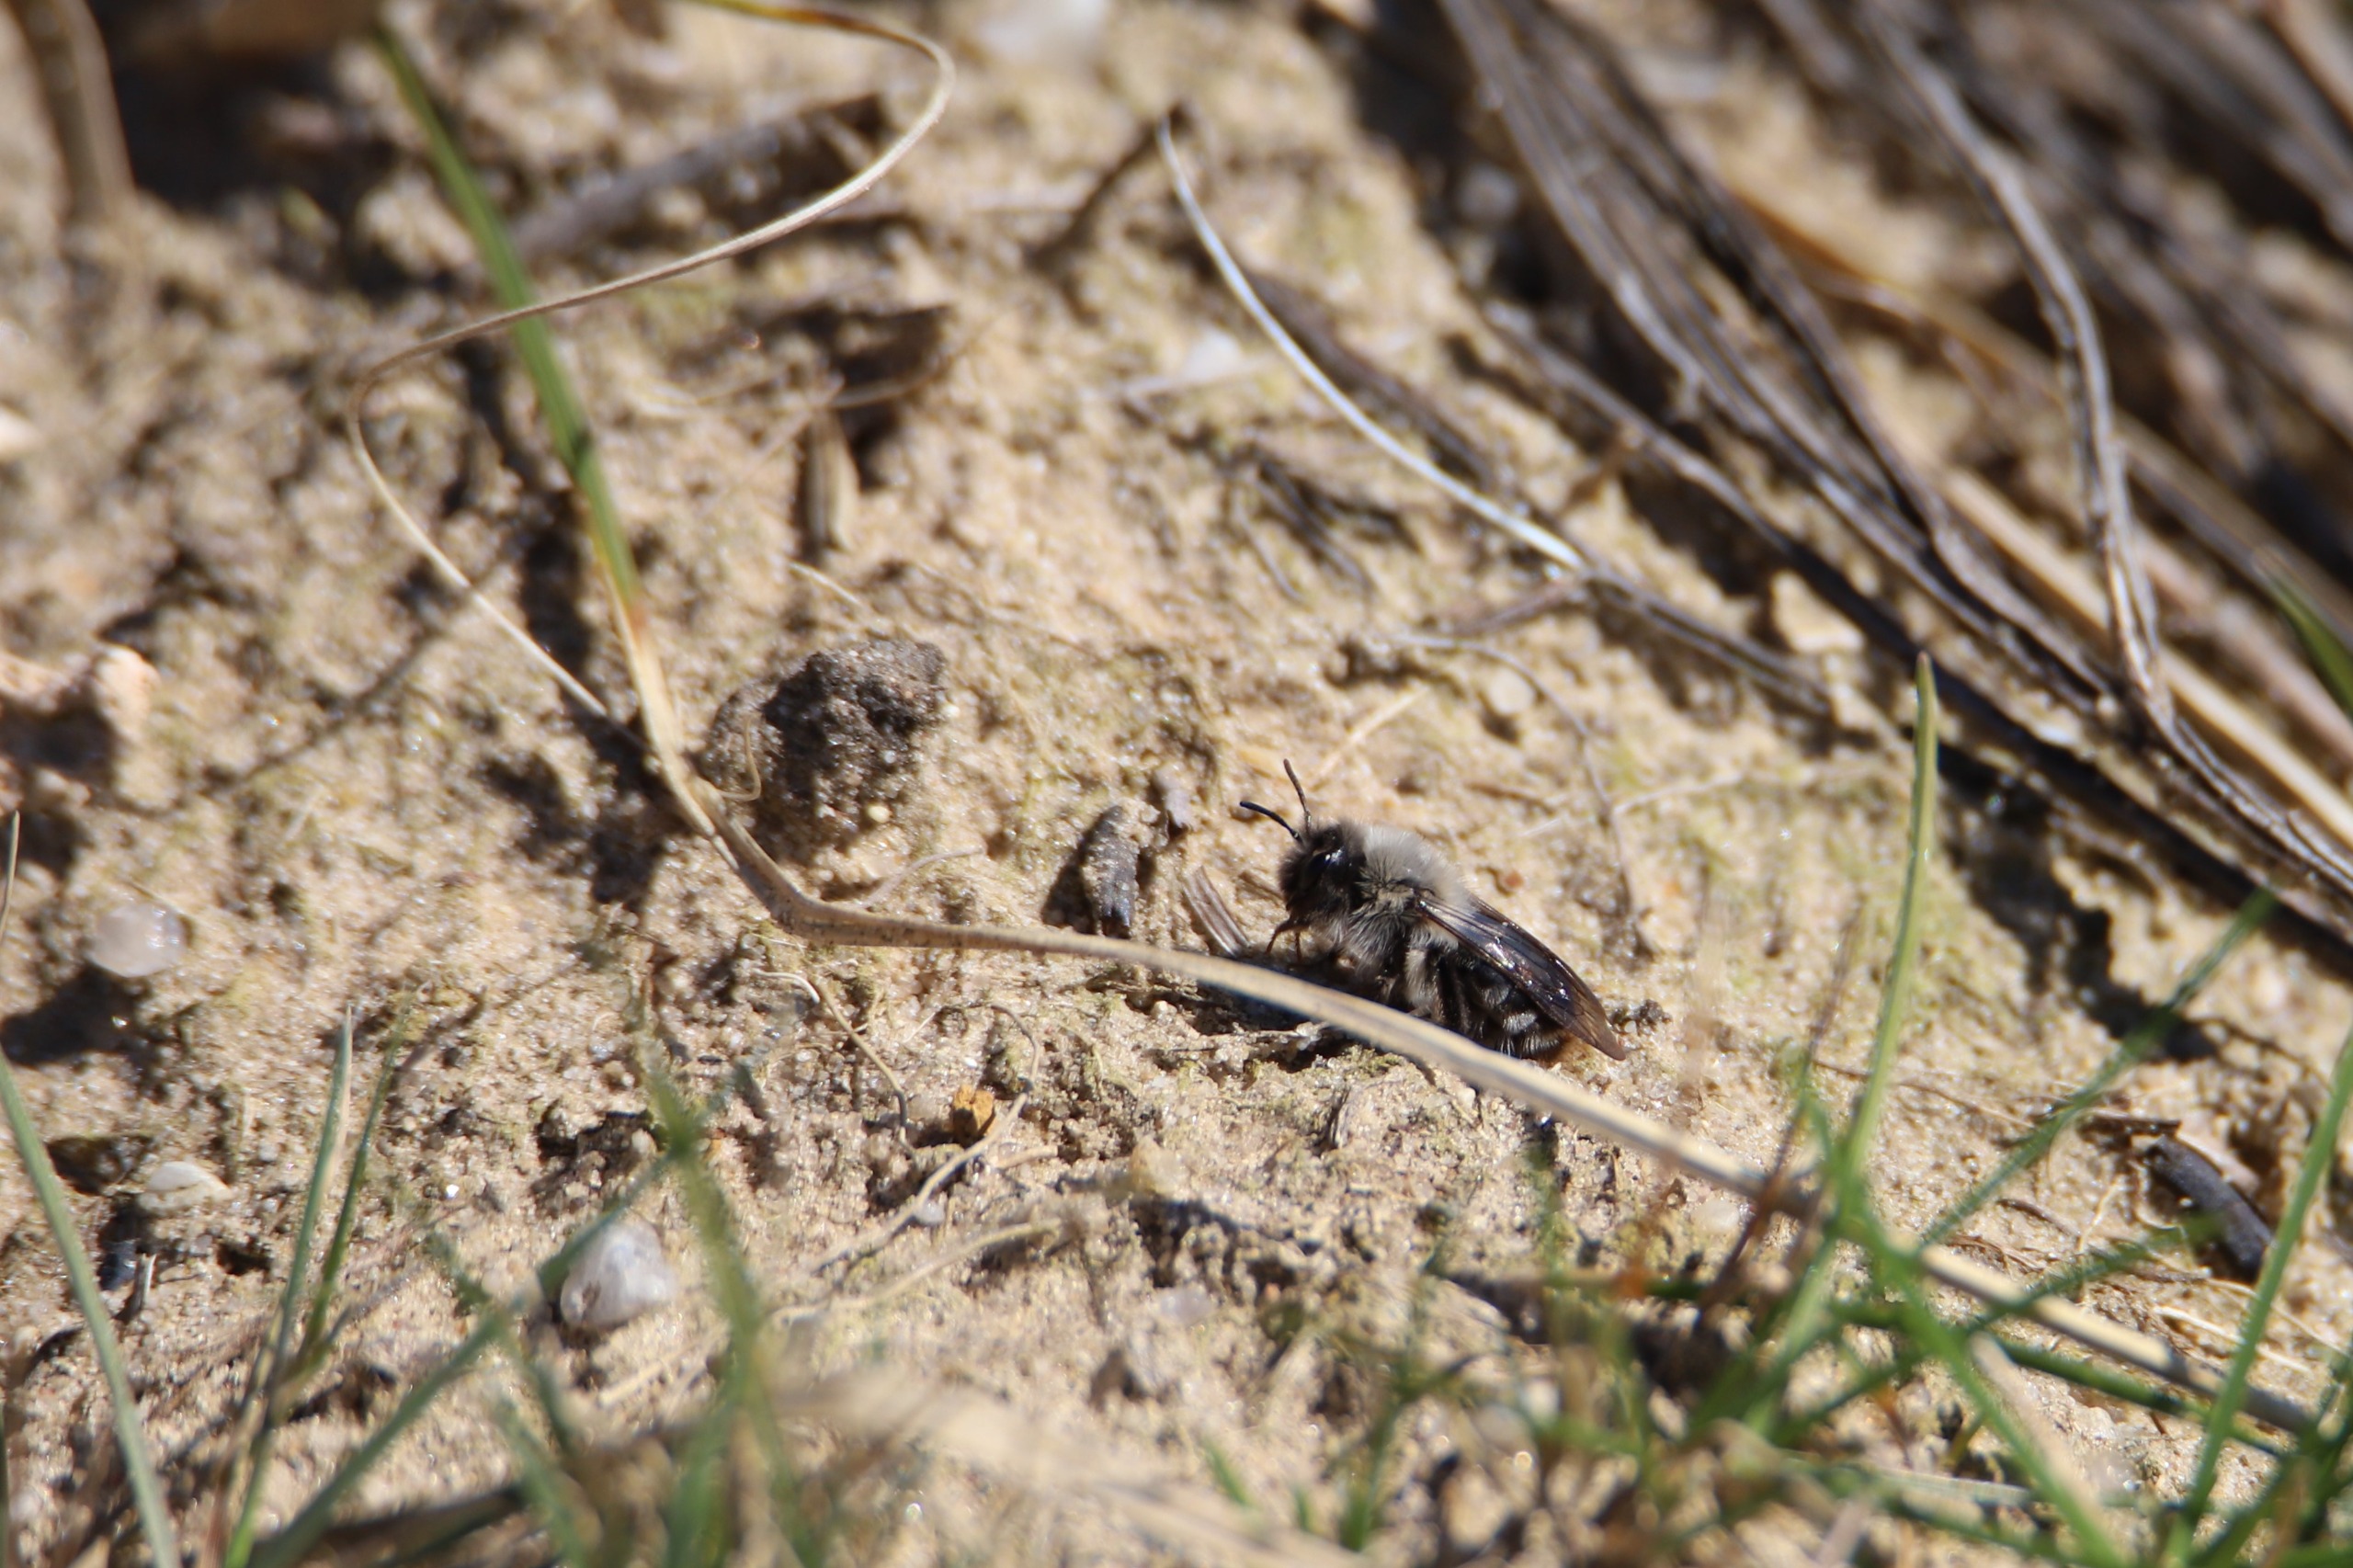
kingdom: Animalia
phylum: Arthropoda
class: Insecta
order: Hymenoptera
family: Andrenidae
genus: Andrena
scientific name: Andrena vaga
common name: Hvidbrystet jordbi
